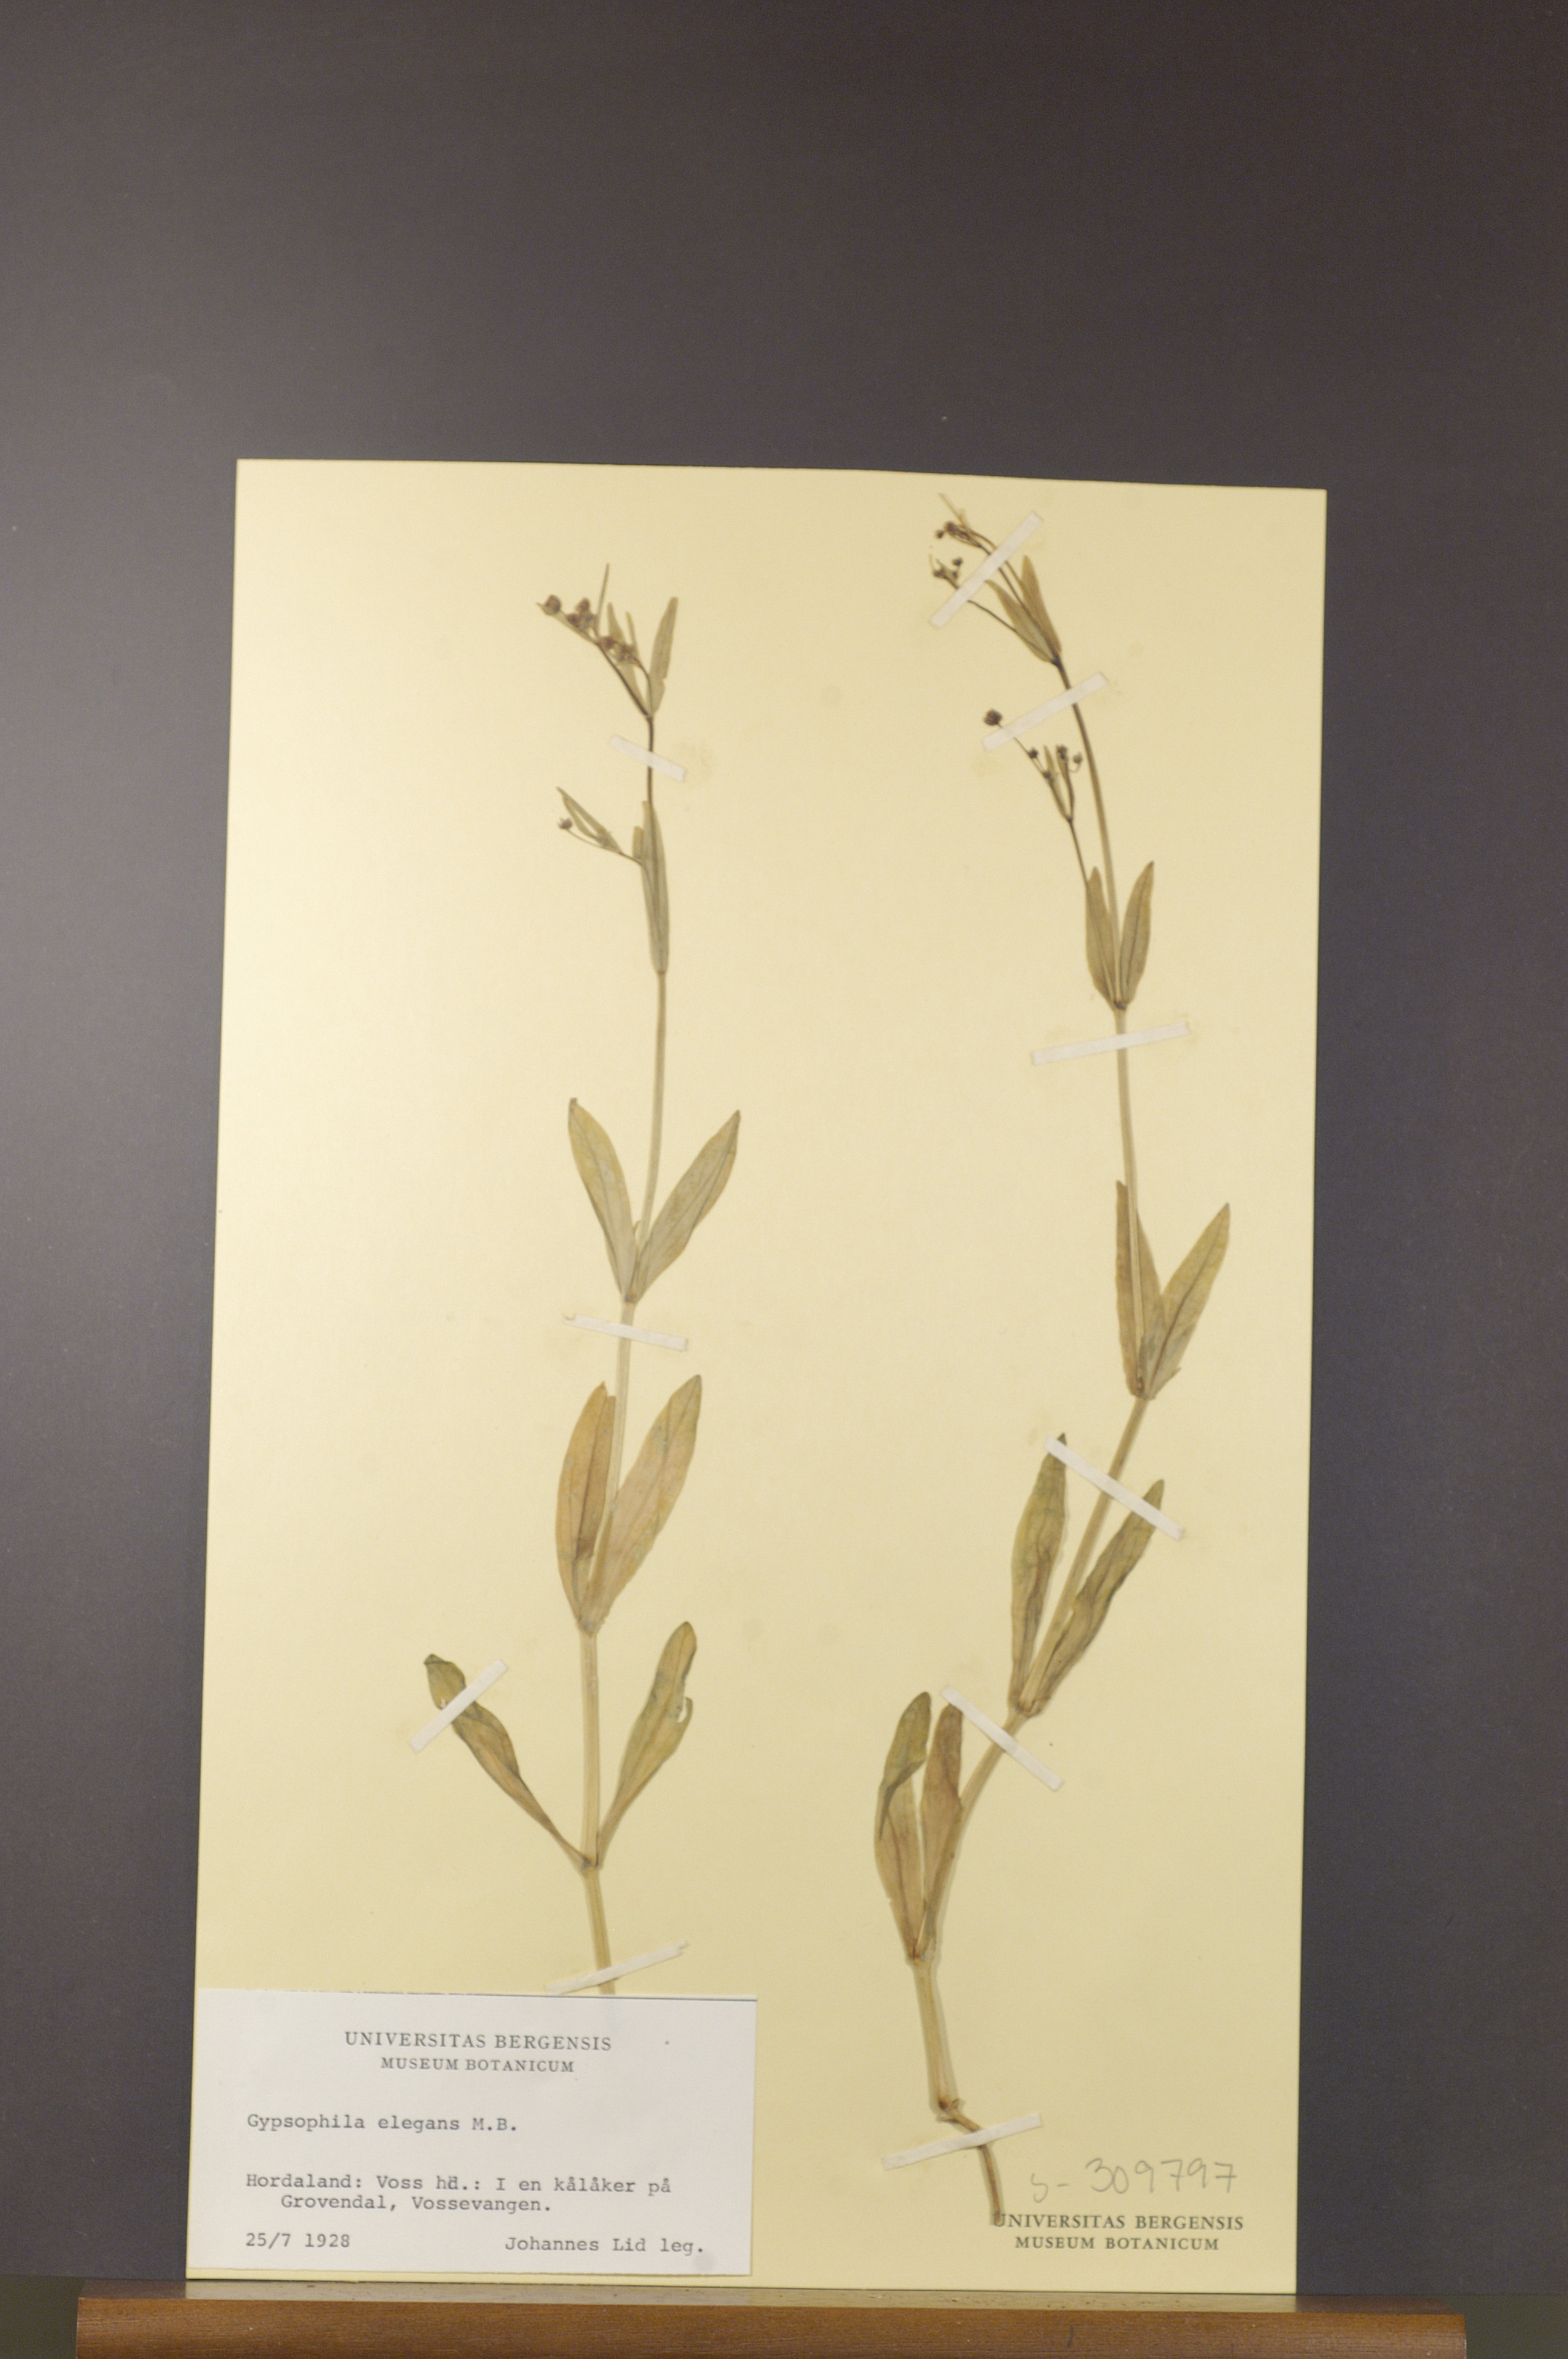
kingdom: Plantae
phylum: Tracheophyta
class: Magnoliopsida
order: Caryophyllales
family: Caryophyllaceae
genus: Gypsophila
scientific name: Gypsophila elegans
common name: Showy baby's-breath
